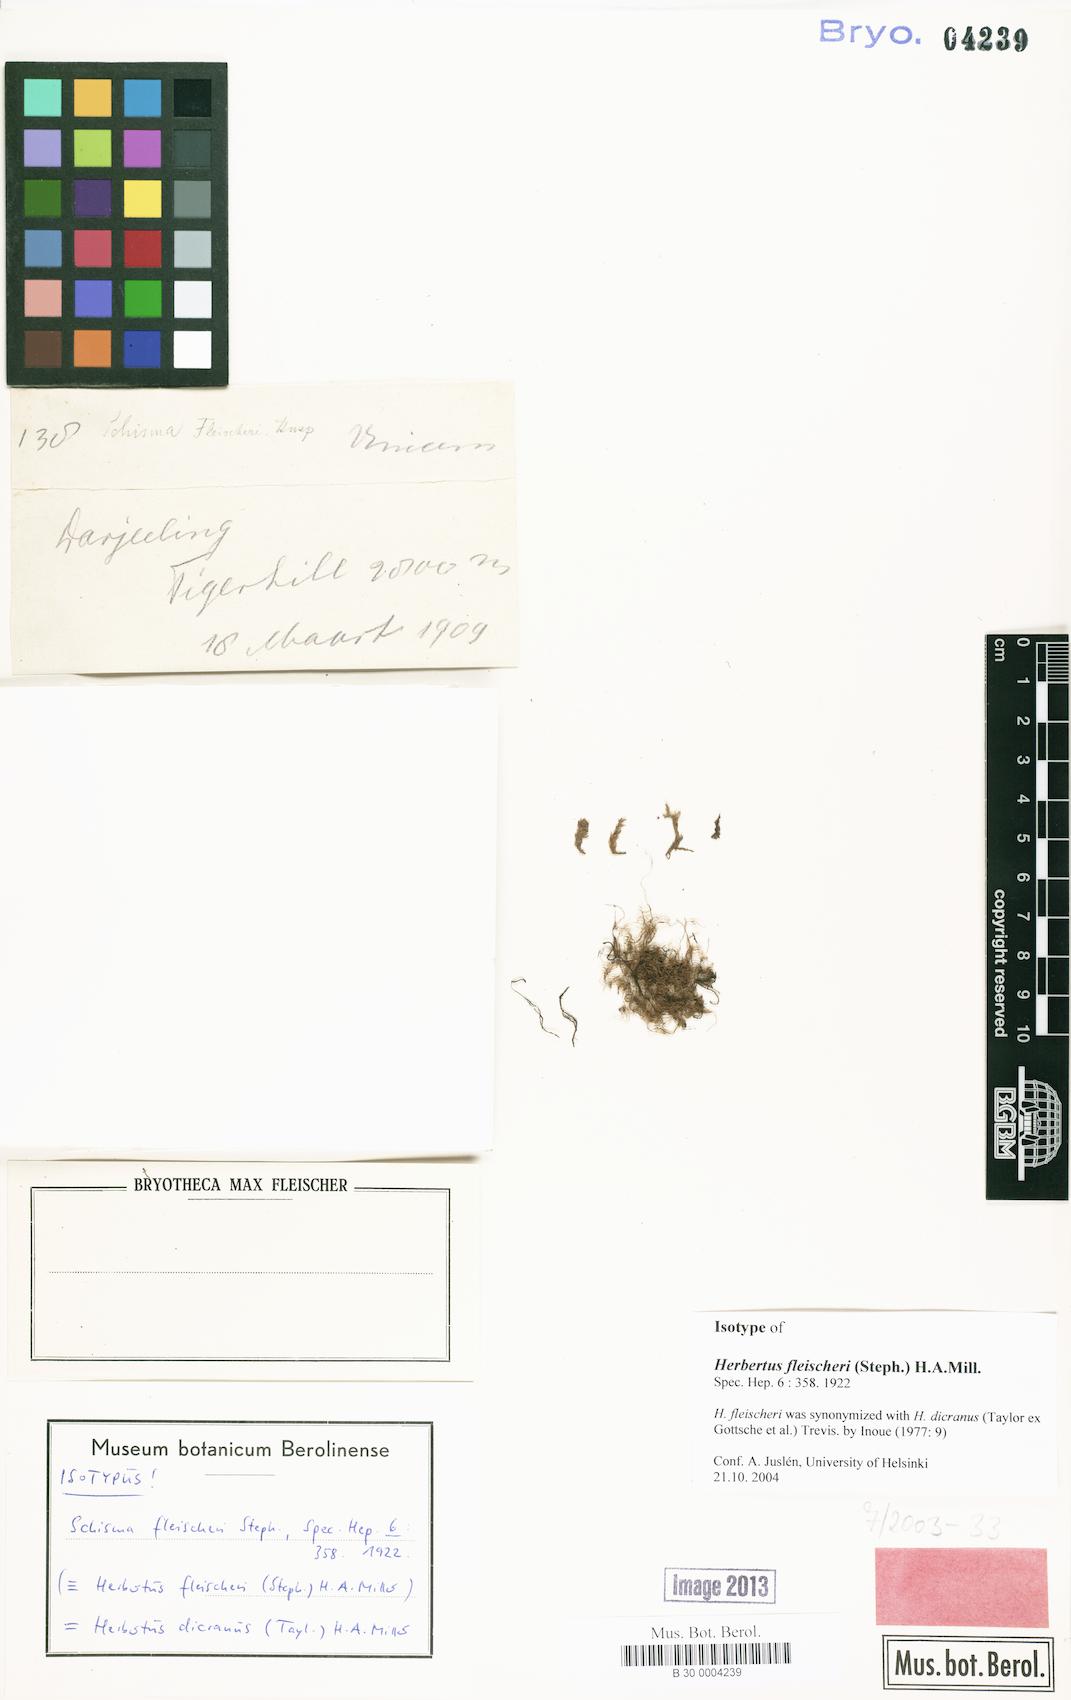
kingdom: Plantae
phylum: Marchantiophyta
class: Jungermanniopsida
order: Jungermanniales
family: Herbertaceae
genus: Herbertus
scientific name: Herbertus dicranus
